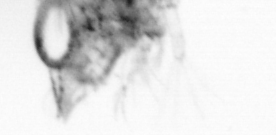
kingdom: Animalia
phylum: Arthropoda
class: Copepoda
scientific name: Copepoda
